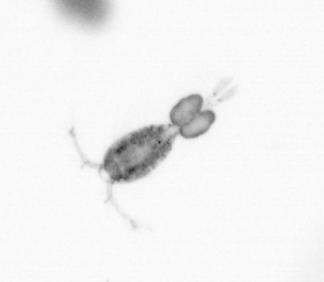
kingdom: Animalia
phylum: Arthropoda
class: Copepoda
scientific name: Copepoda
